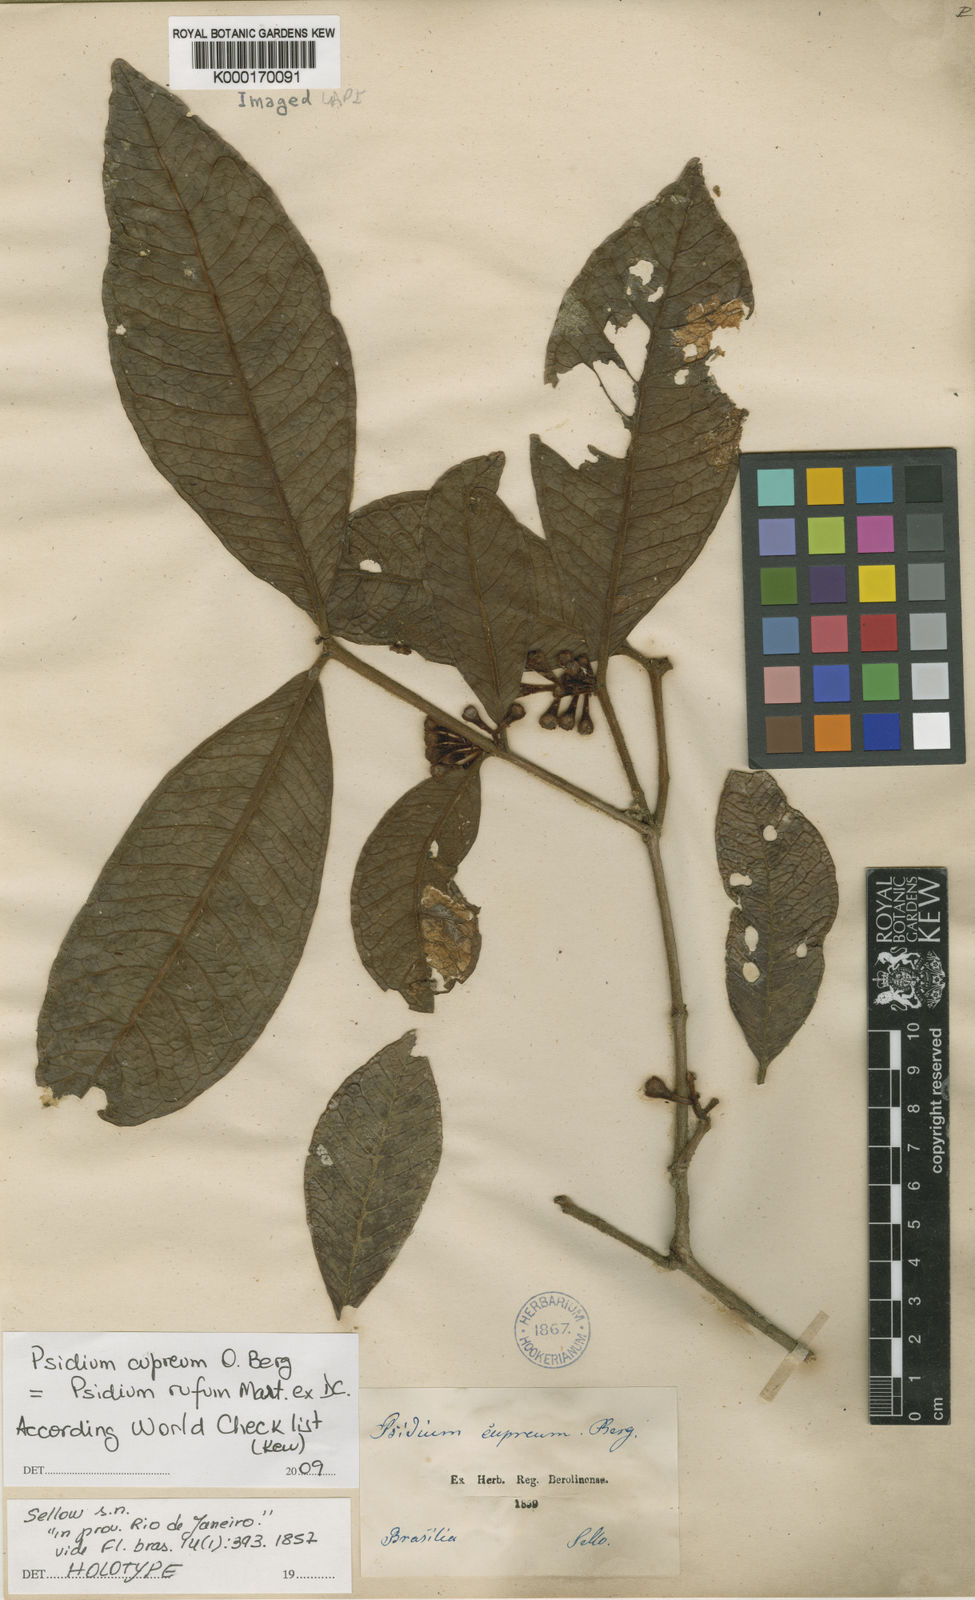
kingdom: Plantae
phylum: Tracheophyta
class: Magnoliopsida
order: Myrtales
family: Myrtaceae
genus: Psidium
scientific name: Psidium rufum
